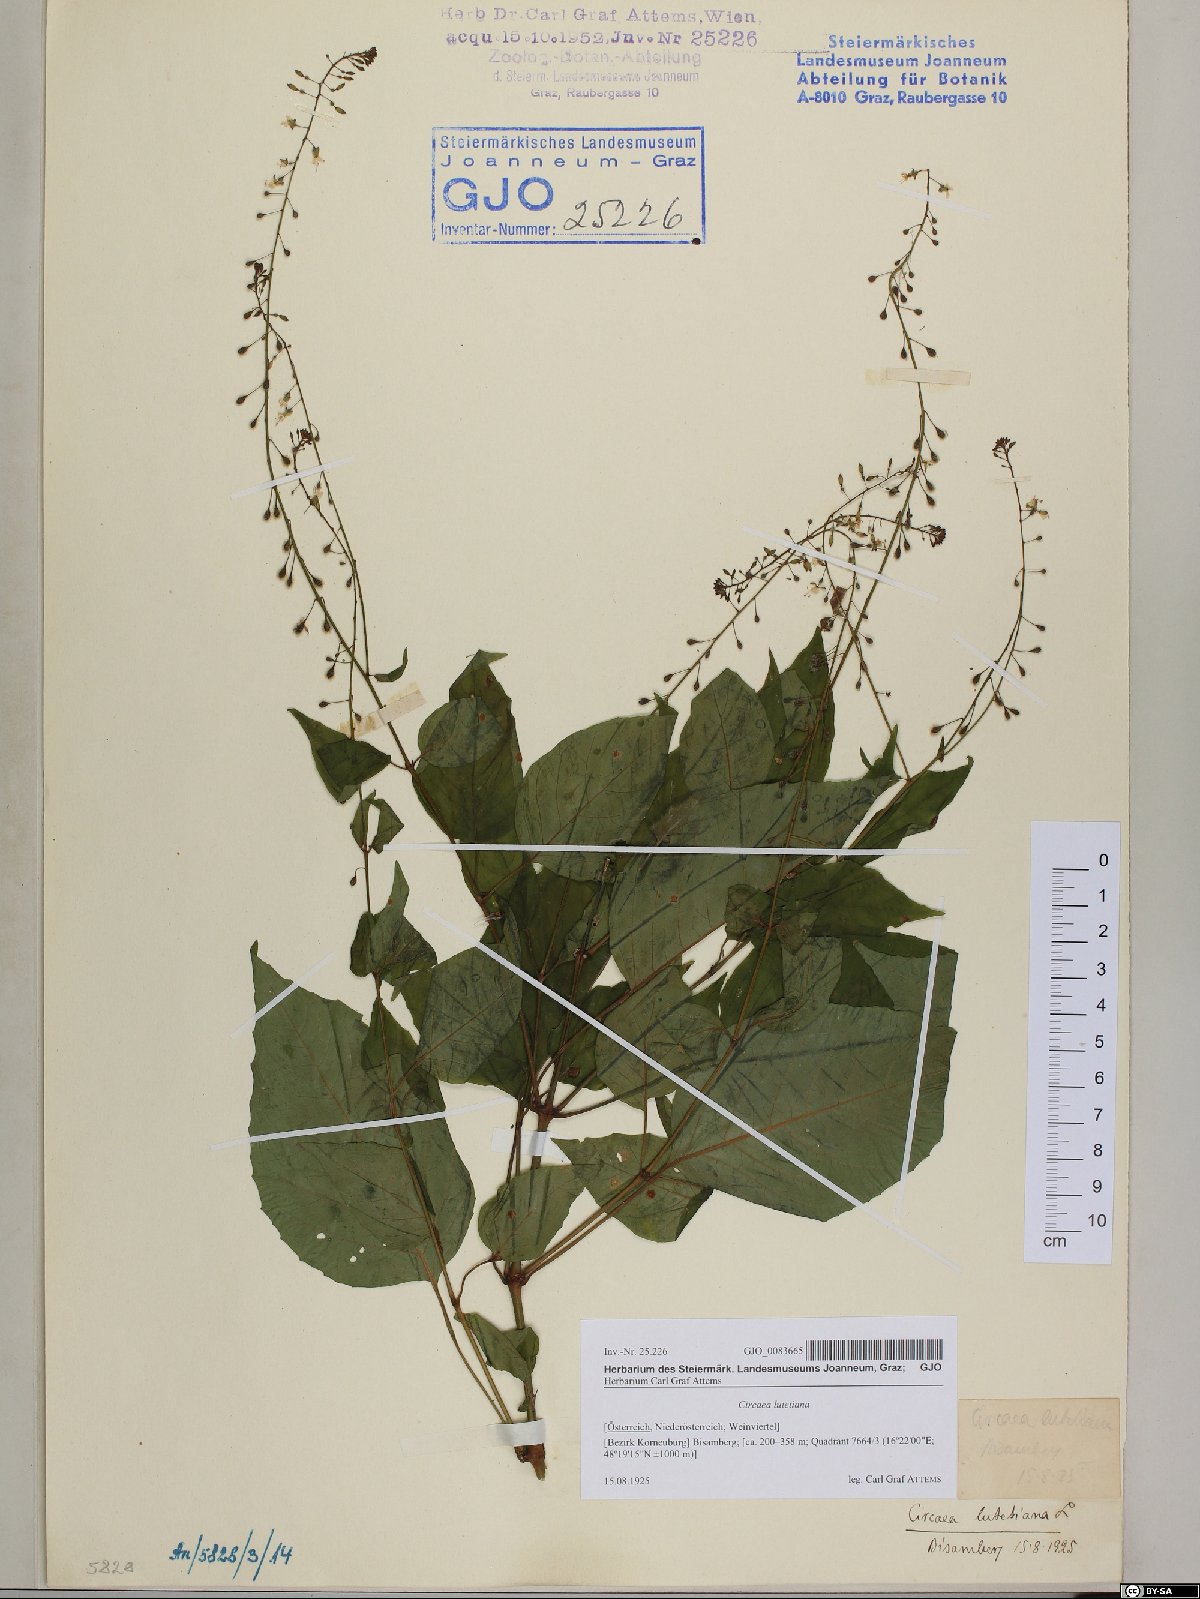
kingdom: Plantae
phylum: Tracheophyta
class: Magnoliopsida
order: Myrtales
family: Onagraceae
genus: Circaea
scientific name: Circaea lutetiana
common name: Enchanter's-nightshade
